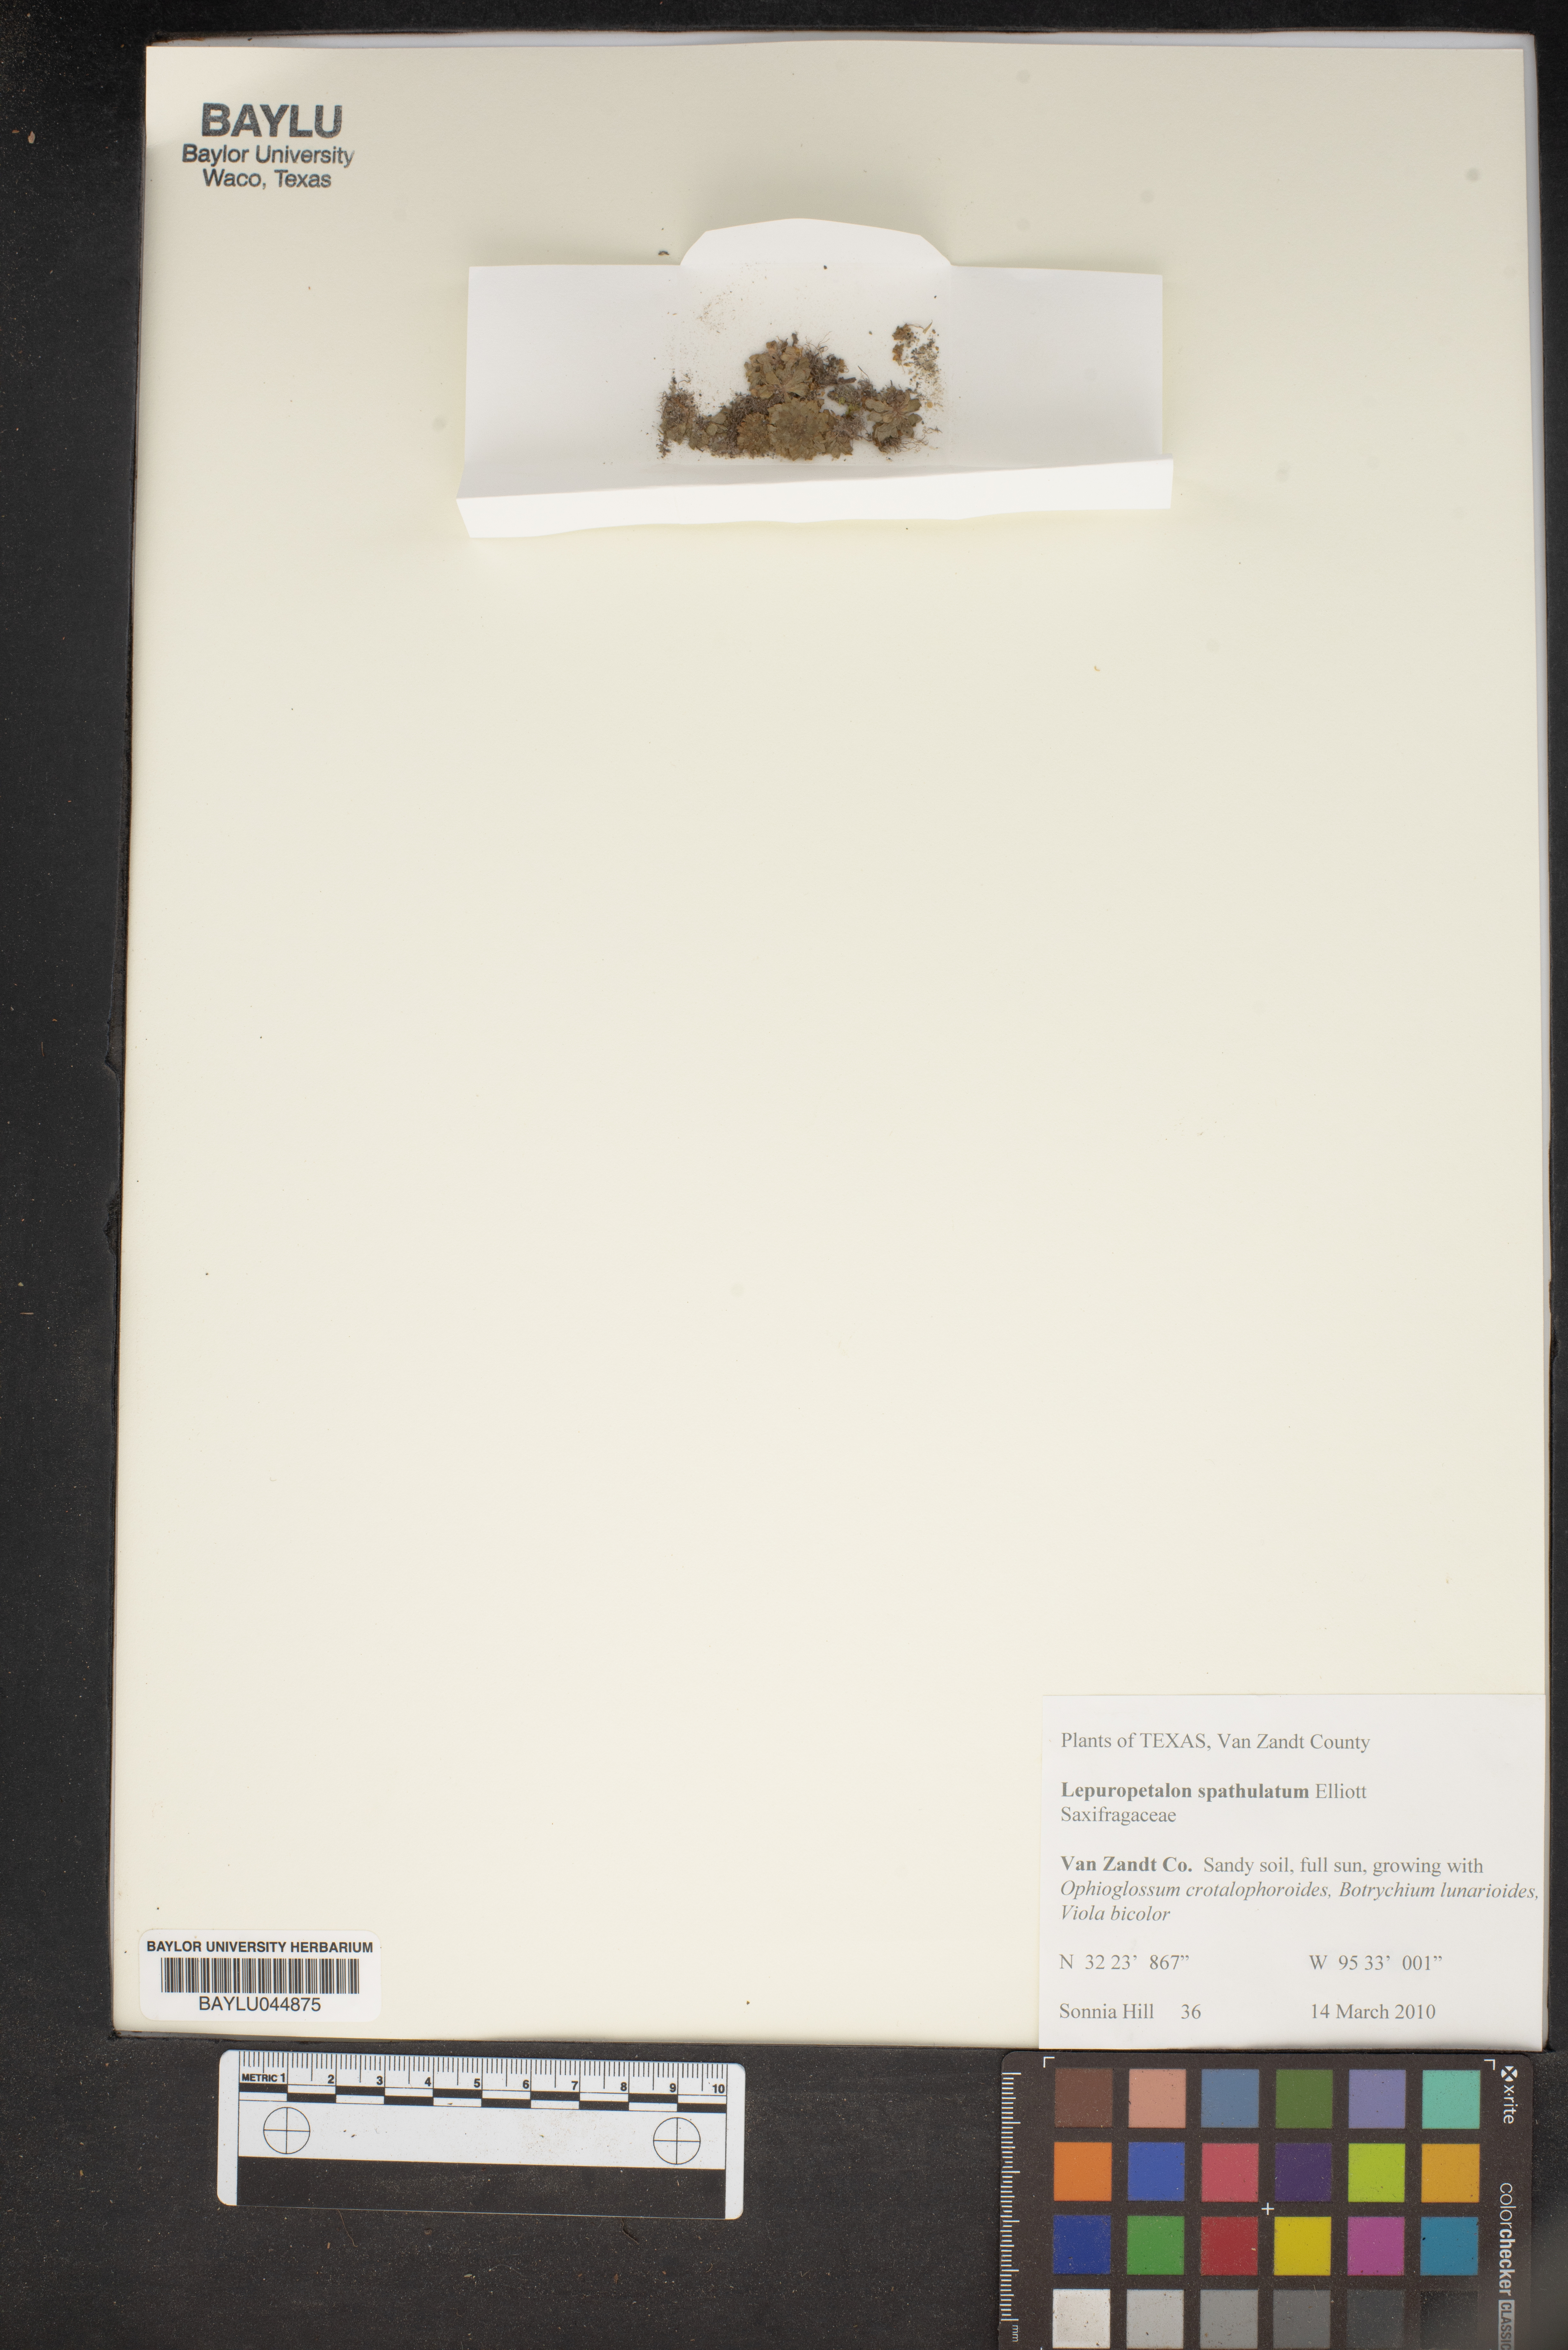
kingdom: Plantae
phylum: Tracheophyta
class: Magnoliopsida
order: Celastrales
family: Parnassiaceae
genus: Lepuropetalon
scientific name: Lepuropetalon spathulatum
